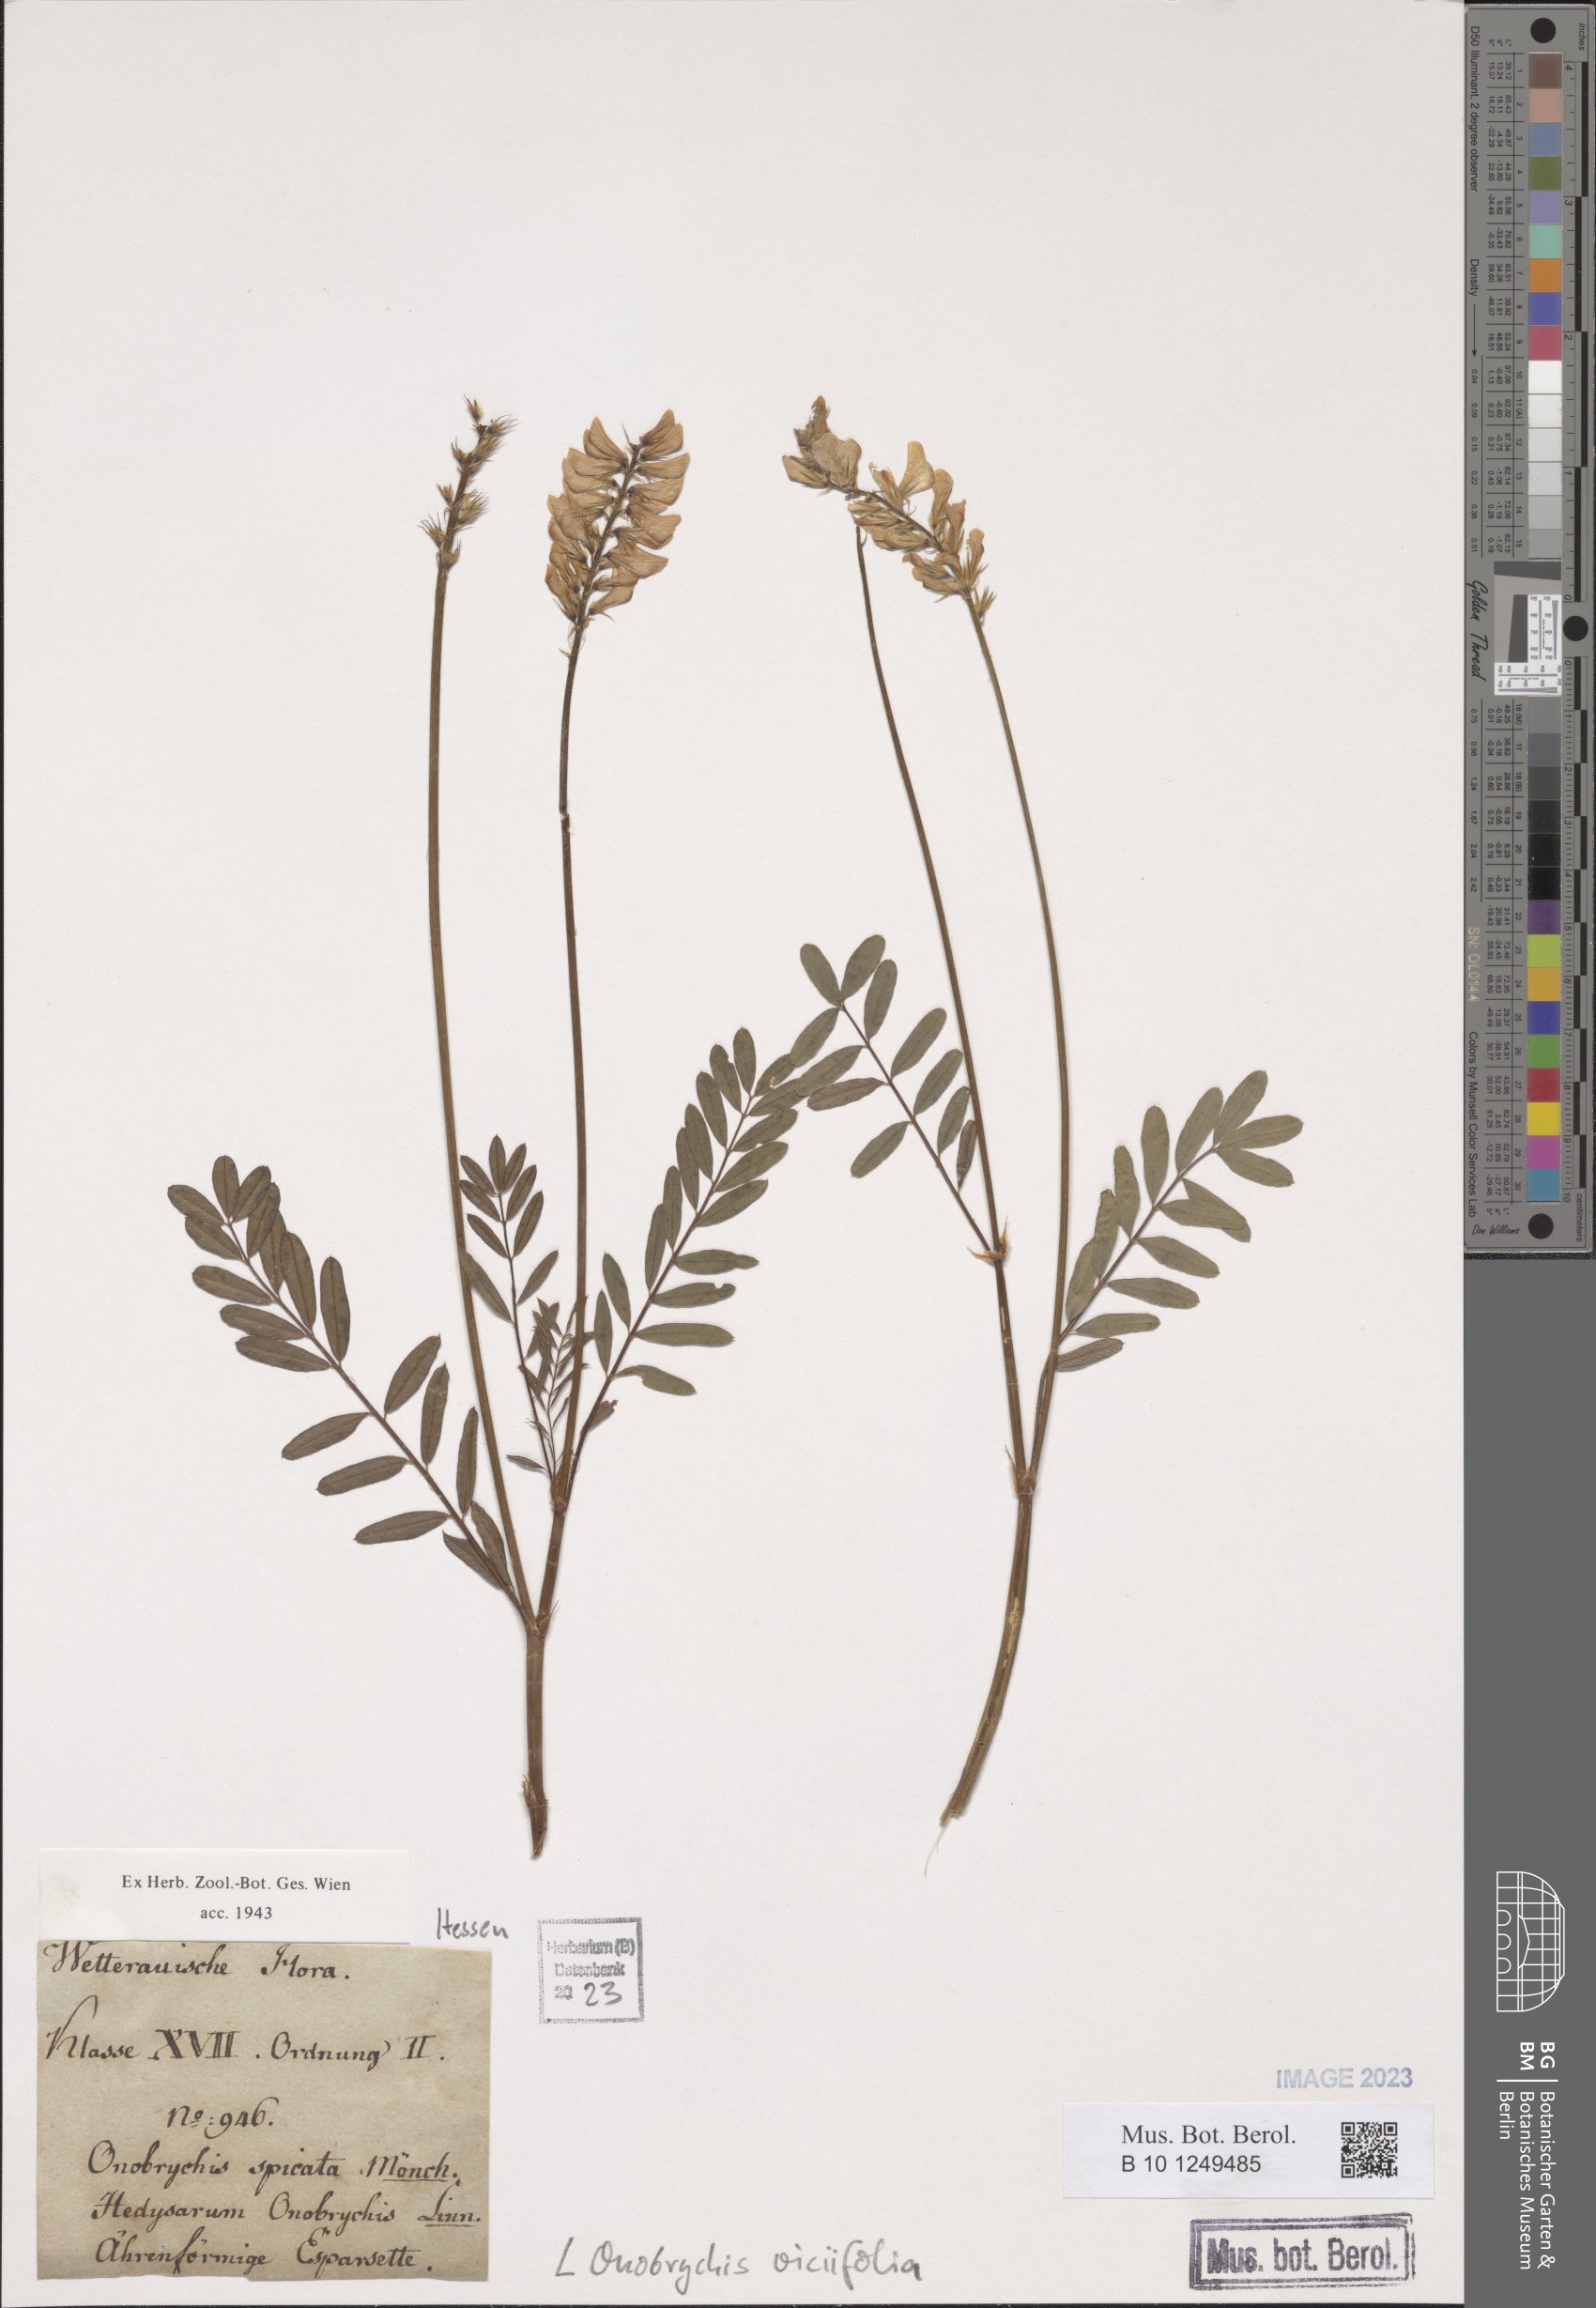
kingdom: Plantae
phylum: Tracheophyta
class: Magnoliopsida
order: Fabales
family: Fabaceae
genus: Onobrychis
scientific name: Onobrychis viciifolia
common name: Sainfoin
